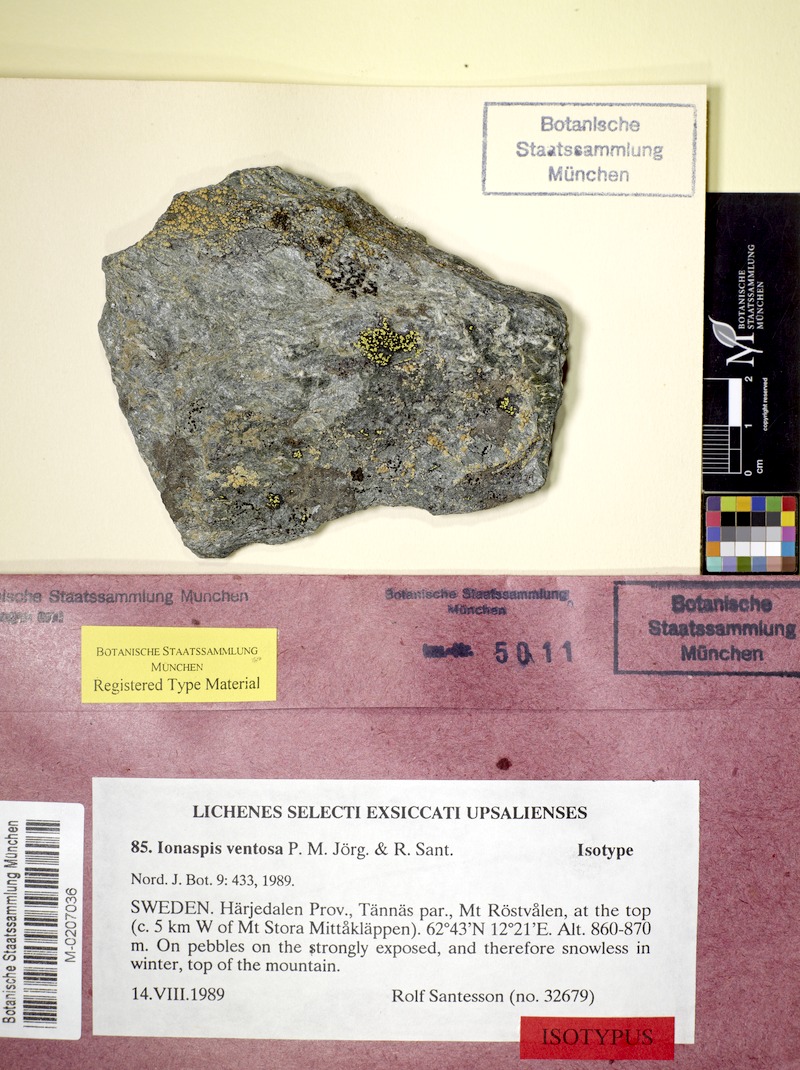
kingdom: Fungi
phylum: Ascomycota
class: Lecanoromycetes
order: Hymeneliales
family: Hymeneliaceae
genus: Ionaspis
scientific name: Ionaspis ventosa
